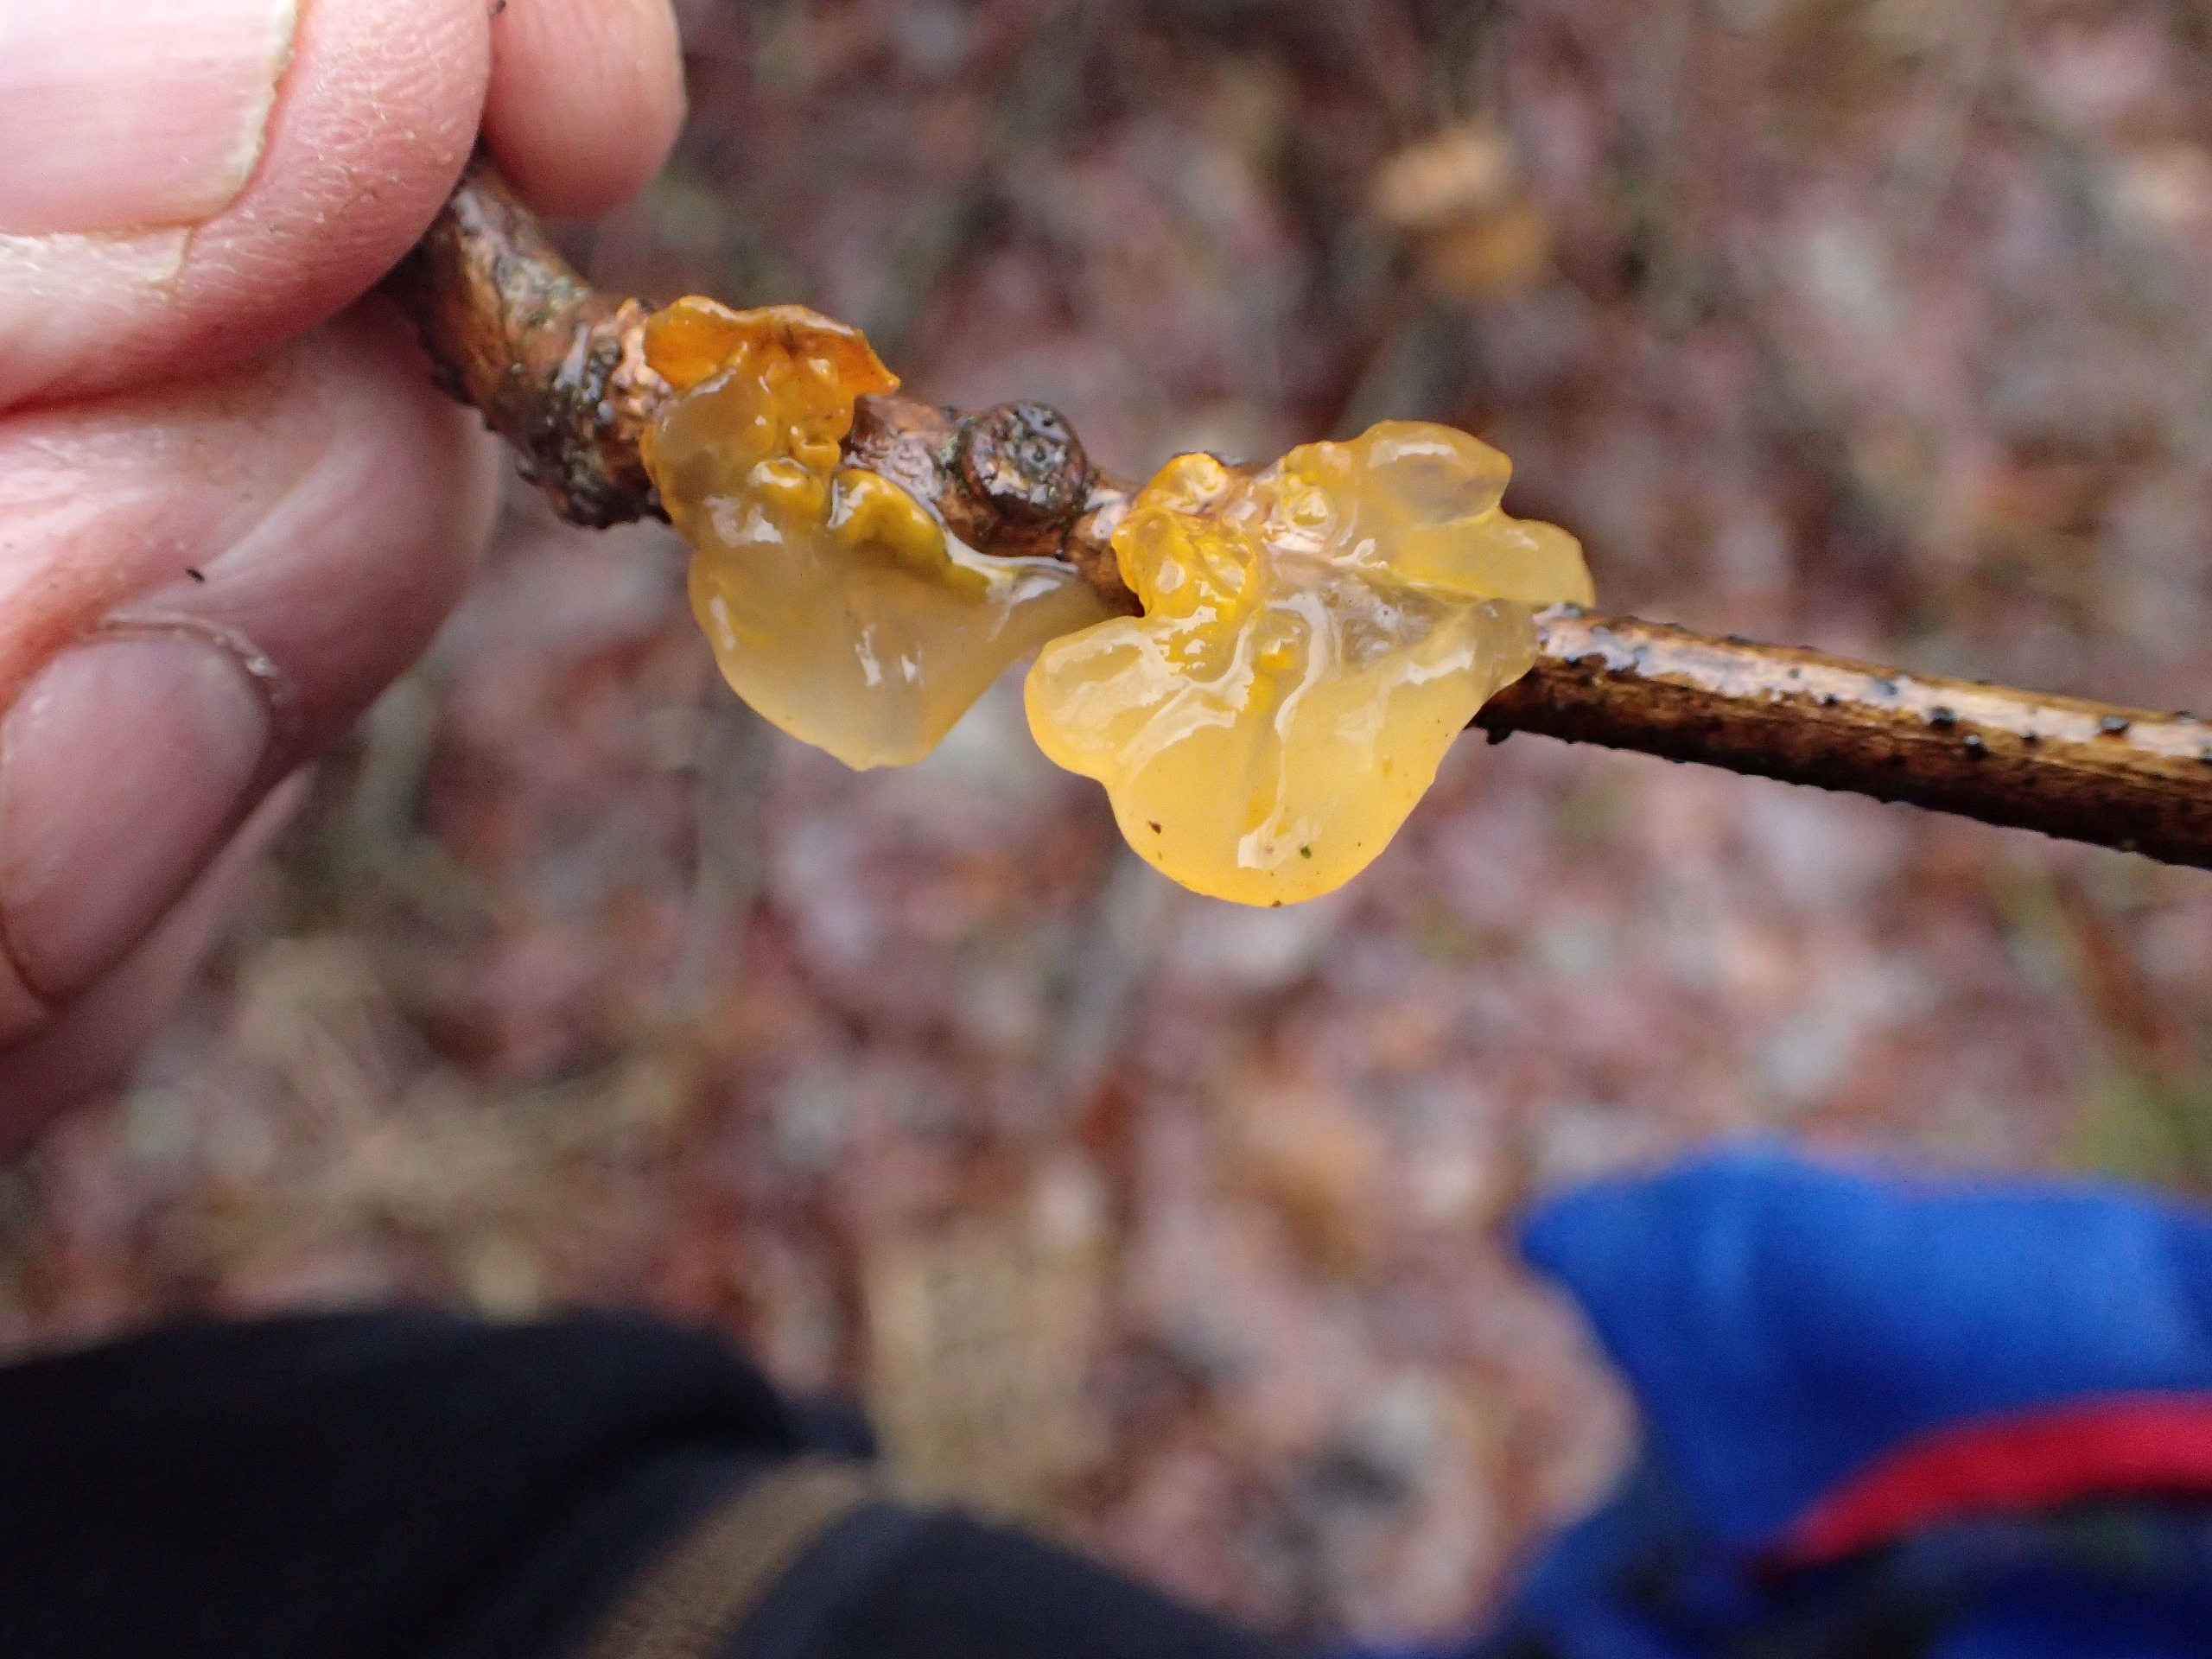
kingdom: Fungi
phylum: Basidiomycota
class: Tremellomycetes
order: Tremellales
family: Tremellaceae
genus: Tremella
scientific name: Tremella mesenterica
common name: Gul bævresvamp
